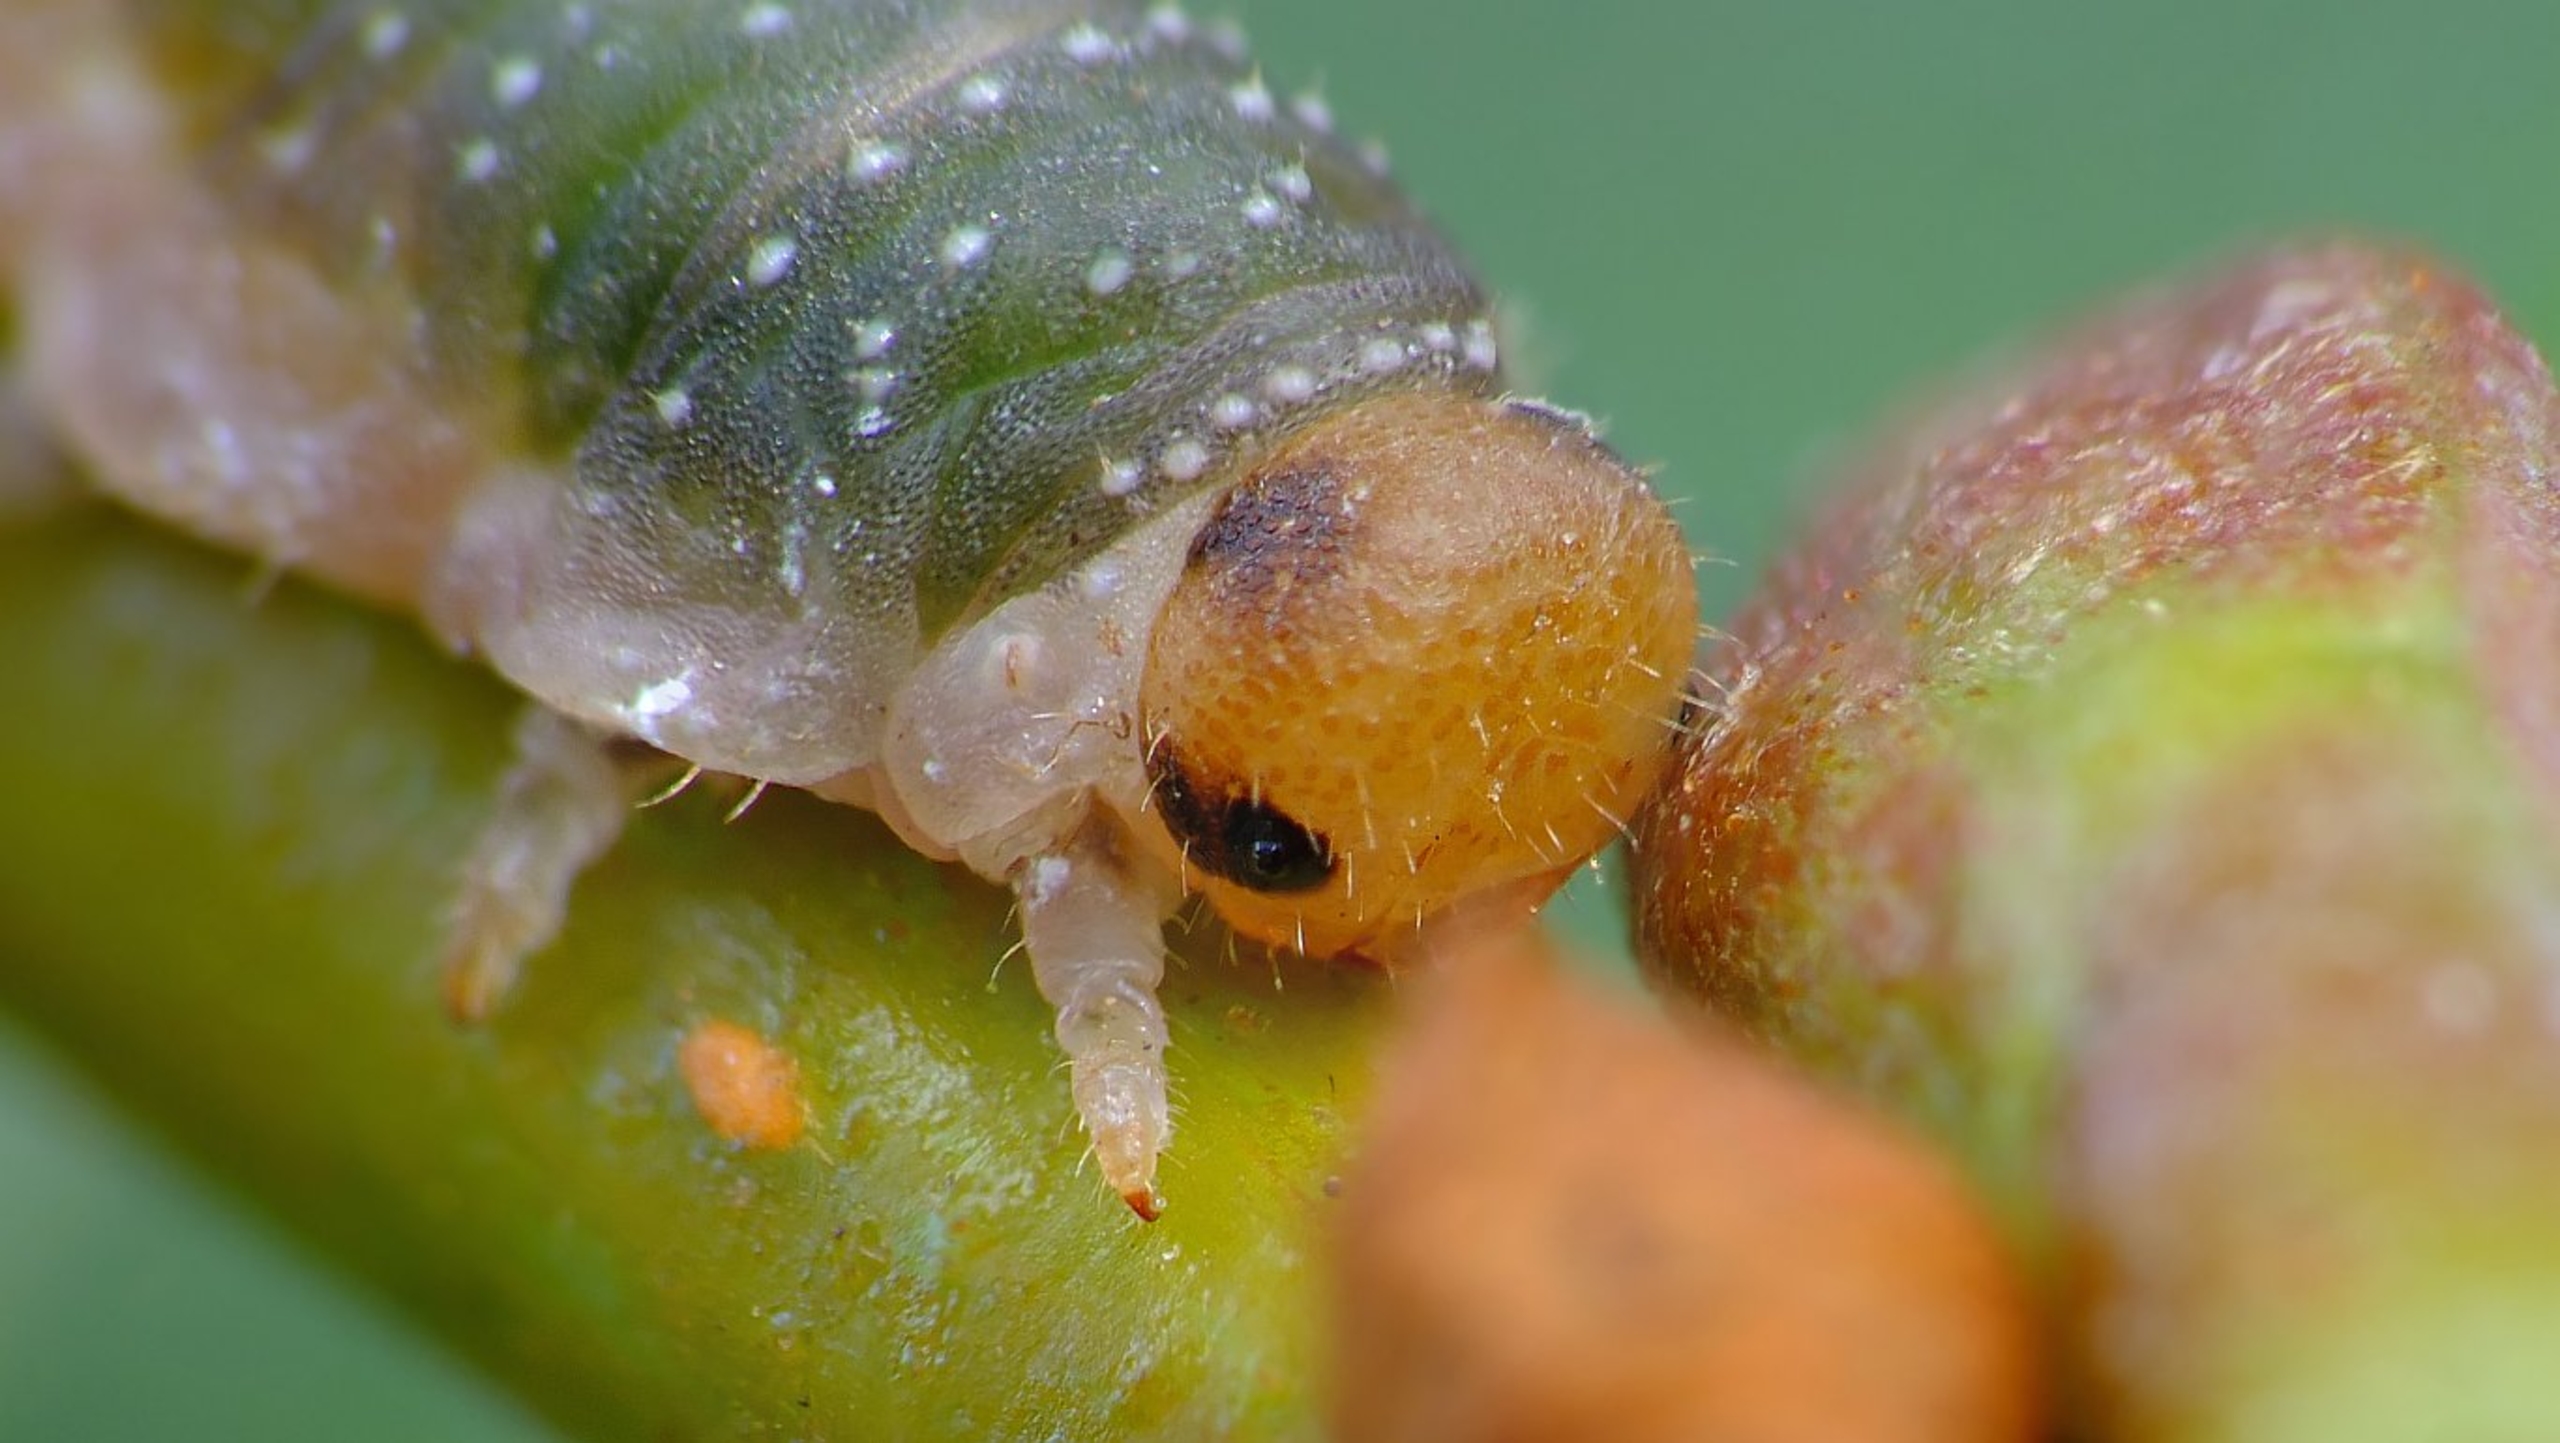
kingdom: Animalia
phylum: Arthropoda
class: Insecta
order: Hymenoptera
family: Tenthredinidae
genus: Nematinus
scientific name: Nematinus luteus
